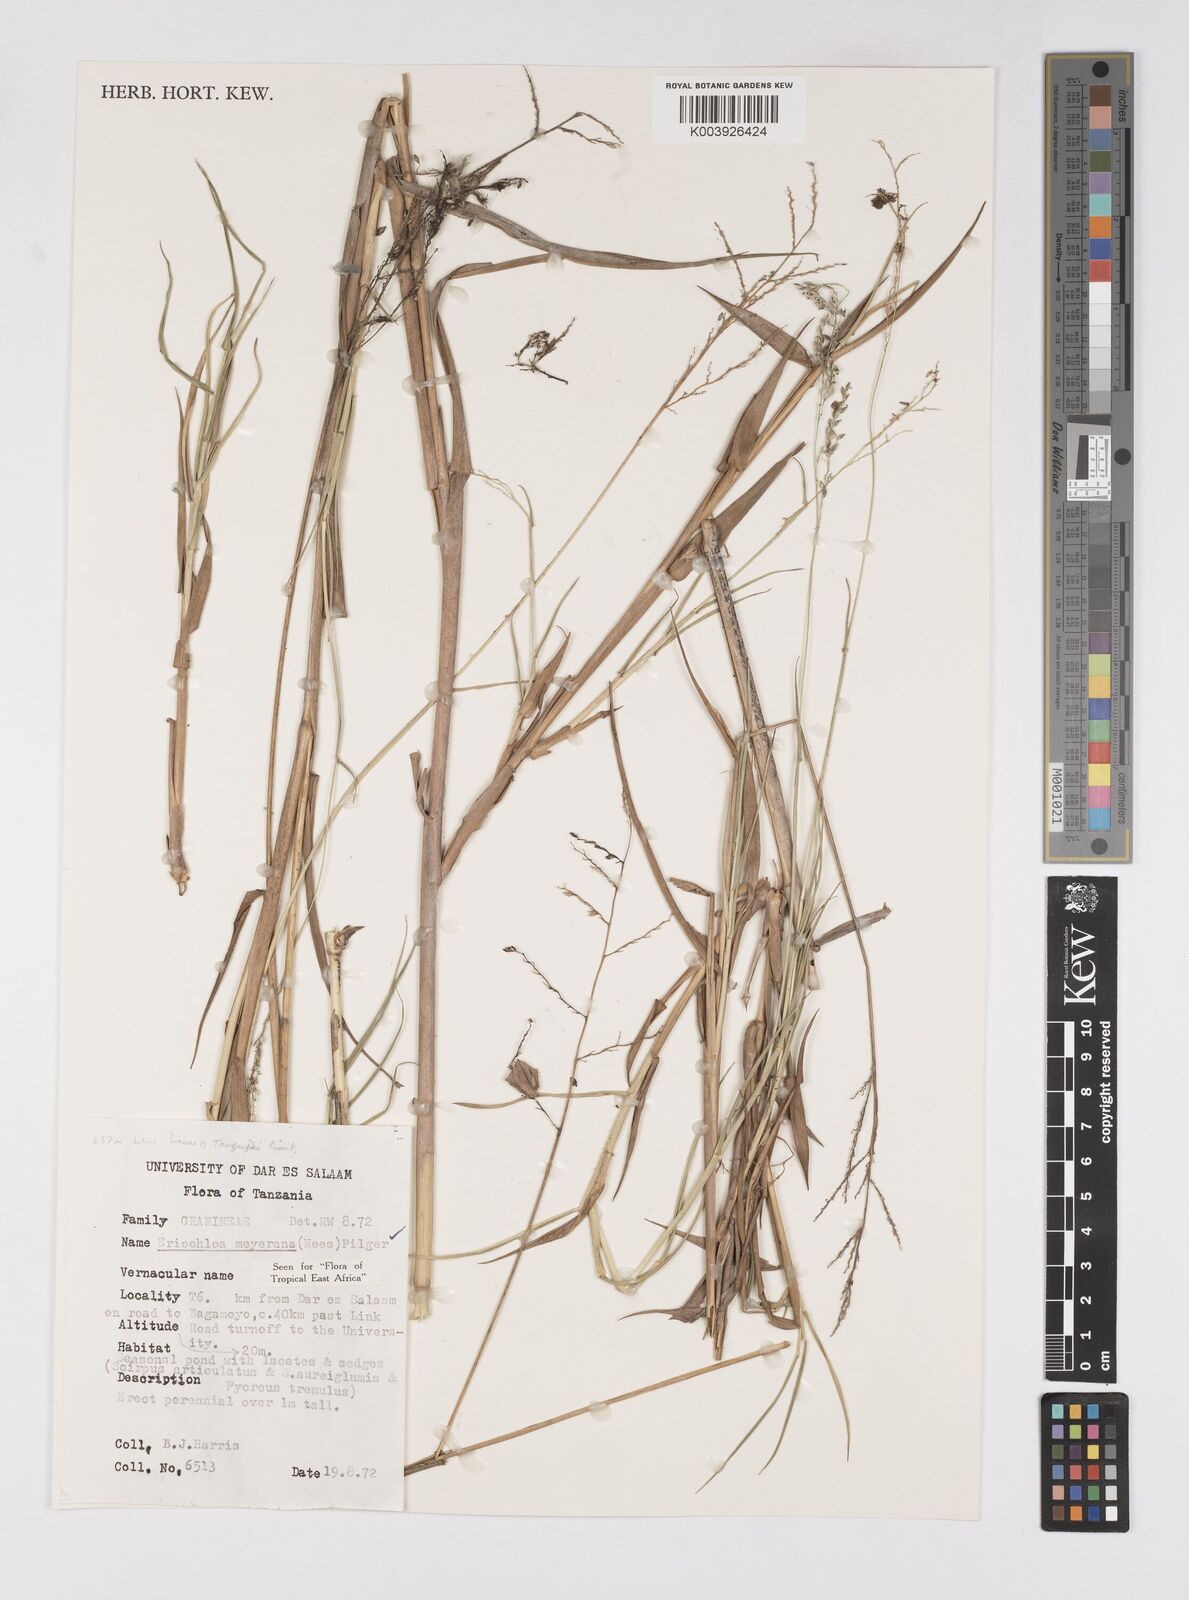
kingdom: Plantae
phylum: Tracheophyta
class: Liliopsida
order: Poales
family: Poaceae
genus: Eriochloa
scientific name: Eriochloa meyeriana
